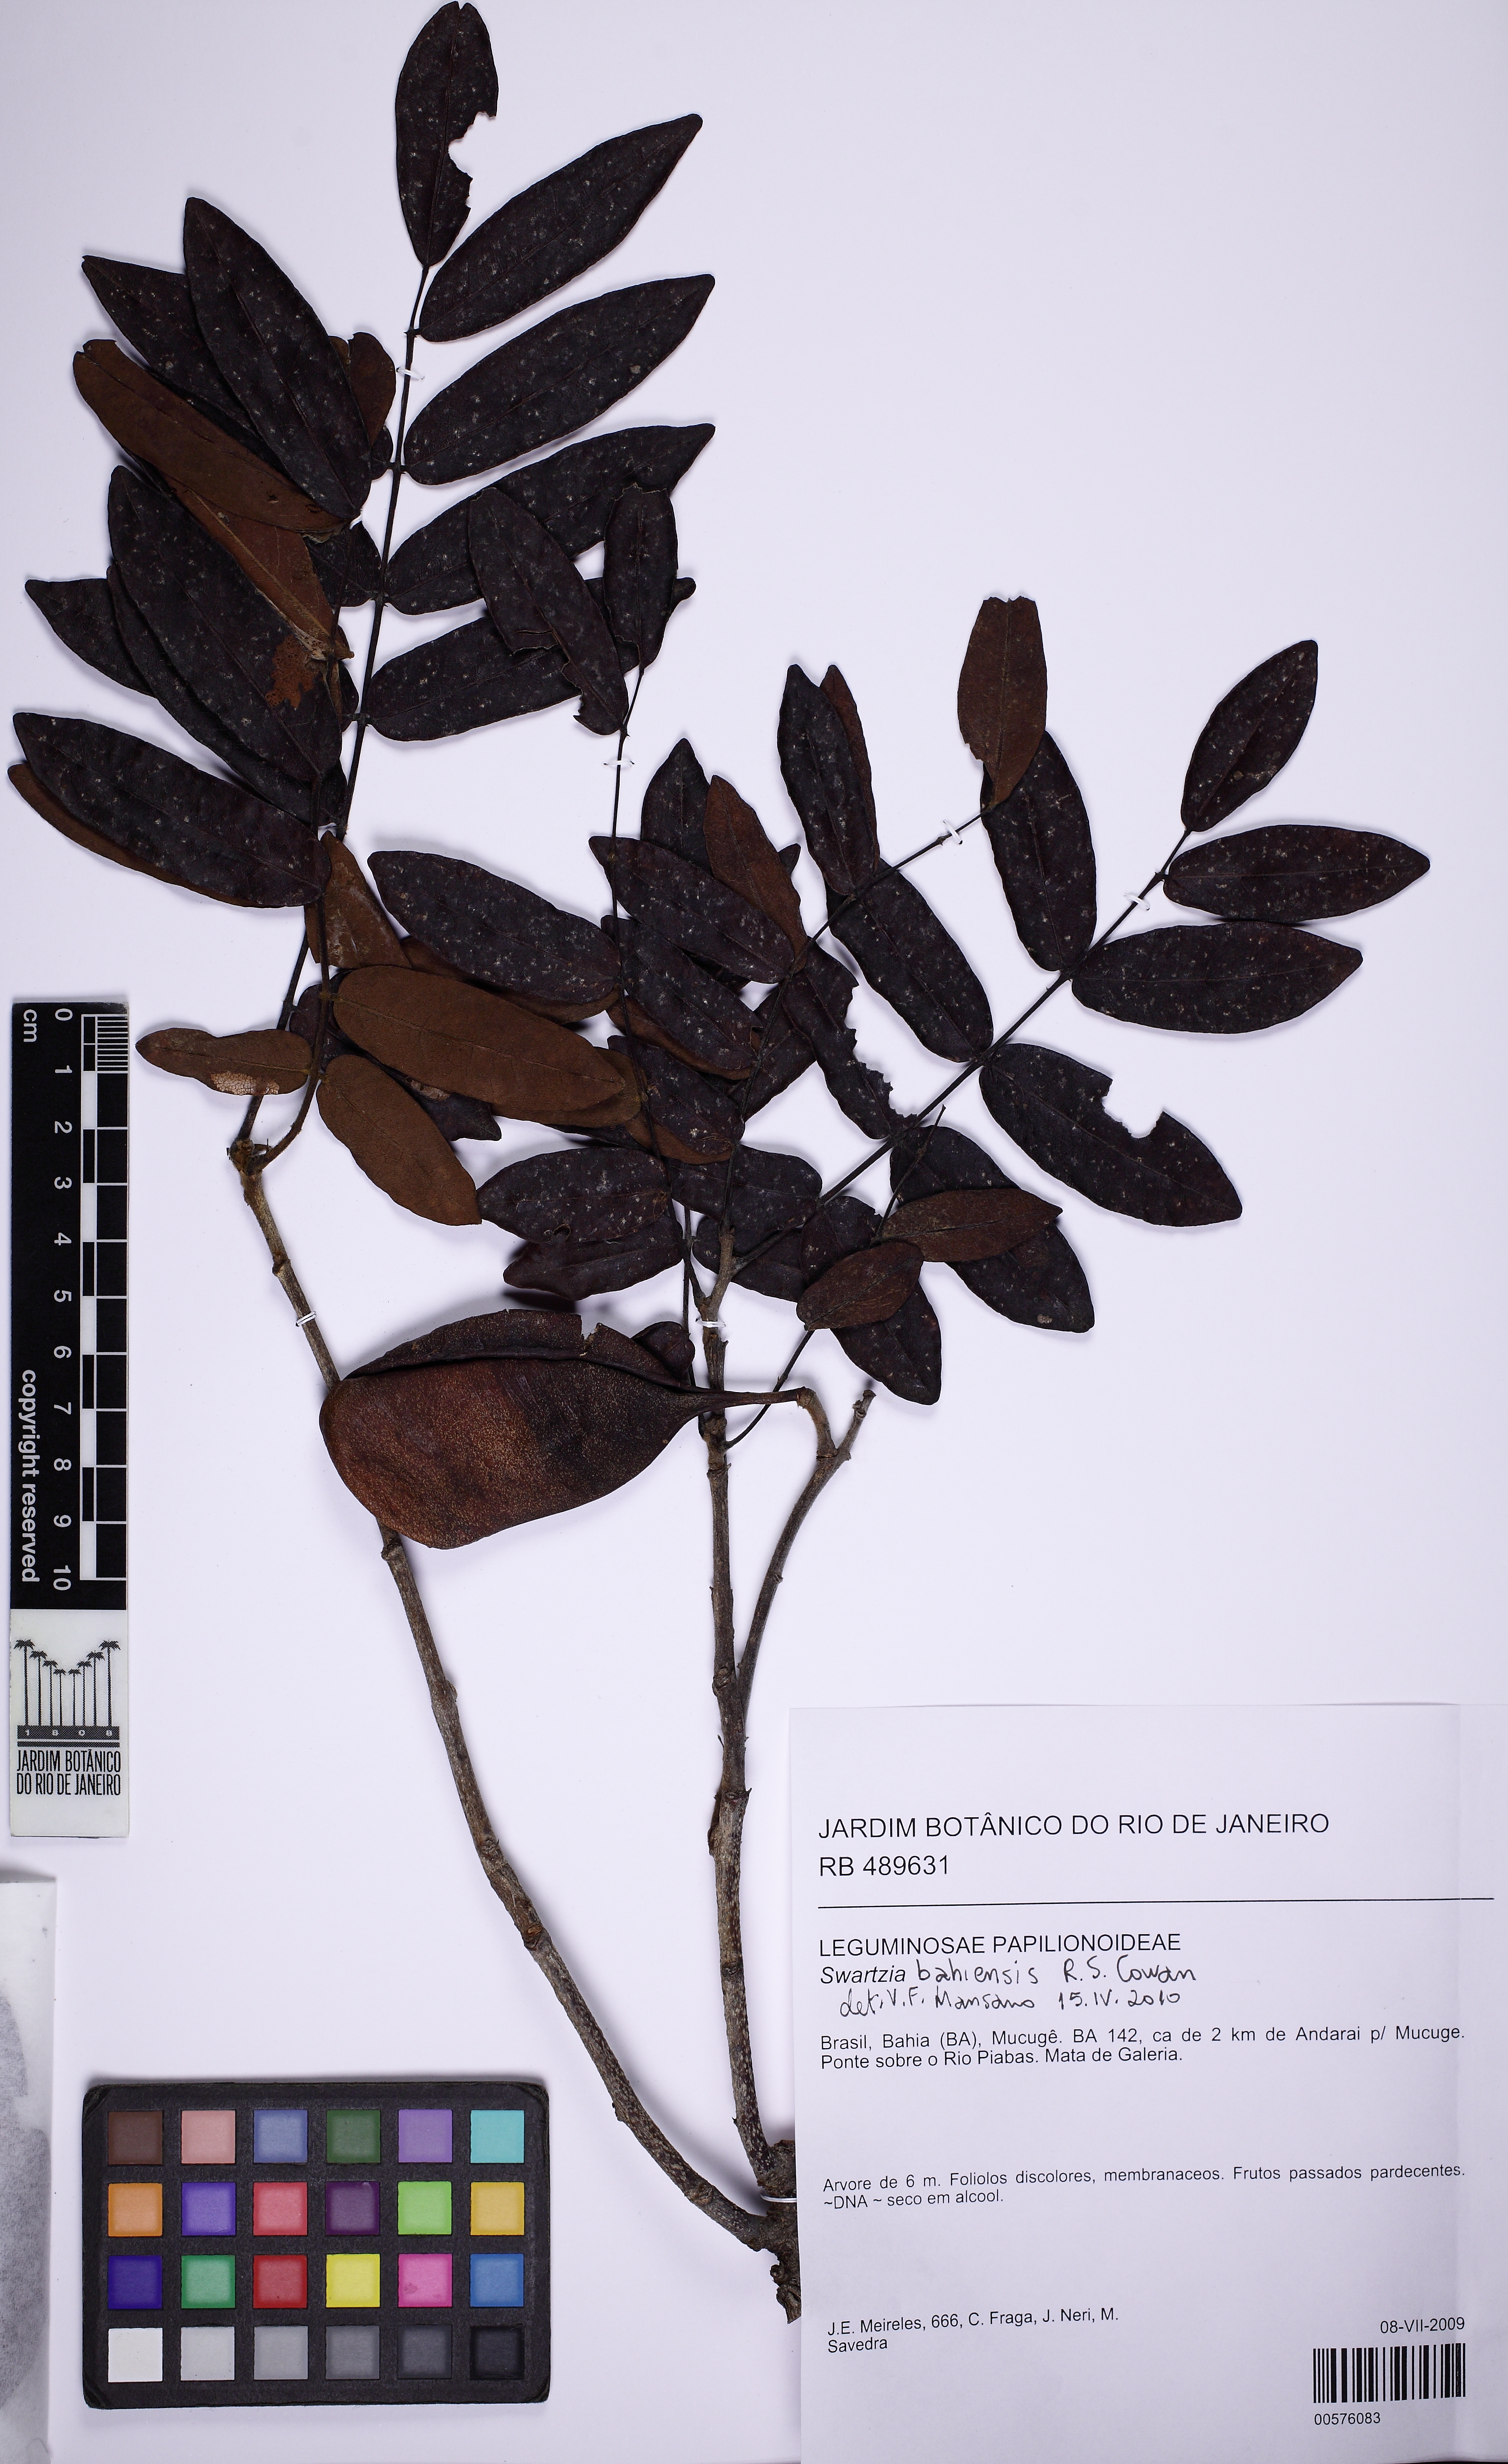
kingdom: Plantae
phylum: Tracheophyta
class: Magnoliopsida
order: Fabales
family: Fabaceae
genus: Swartzia
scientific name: Swartzia bahiensis
